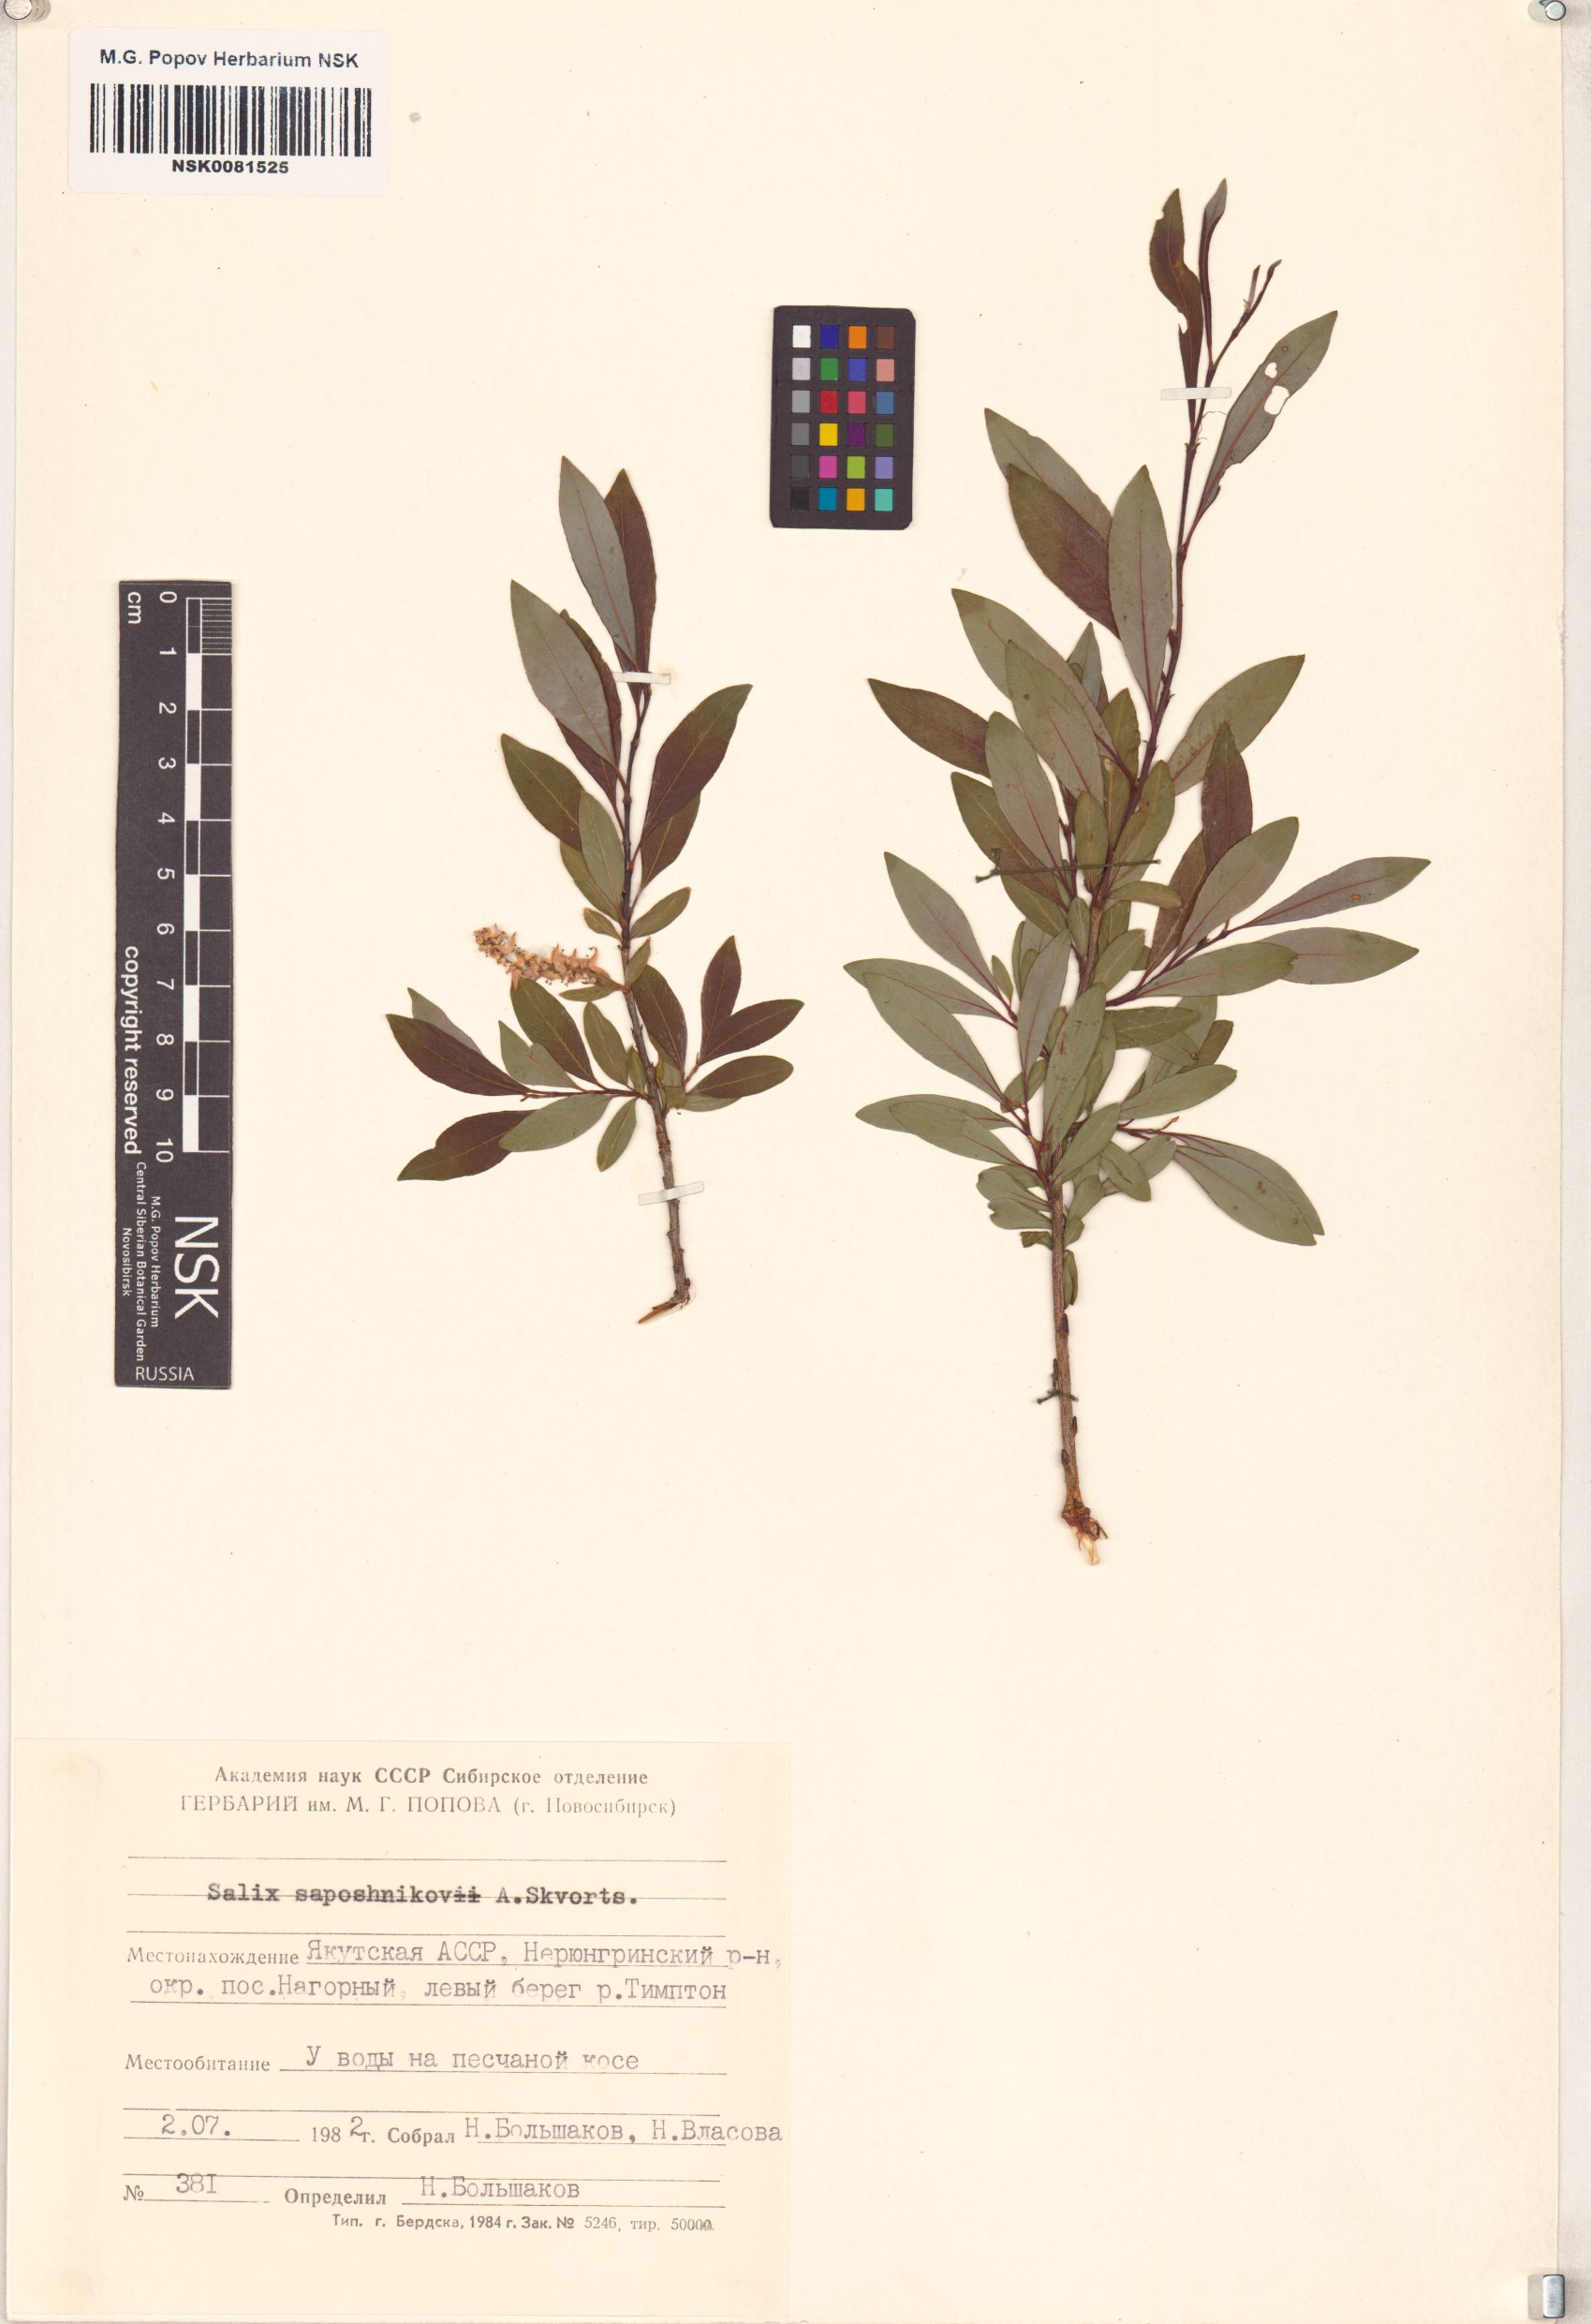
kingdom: Plantae
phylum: Tracheophyta
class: Magnoliopsida
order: Malpighiales
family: Salicaceae
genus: Salix
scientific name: Salix saposhnikovii
